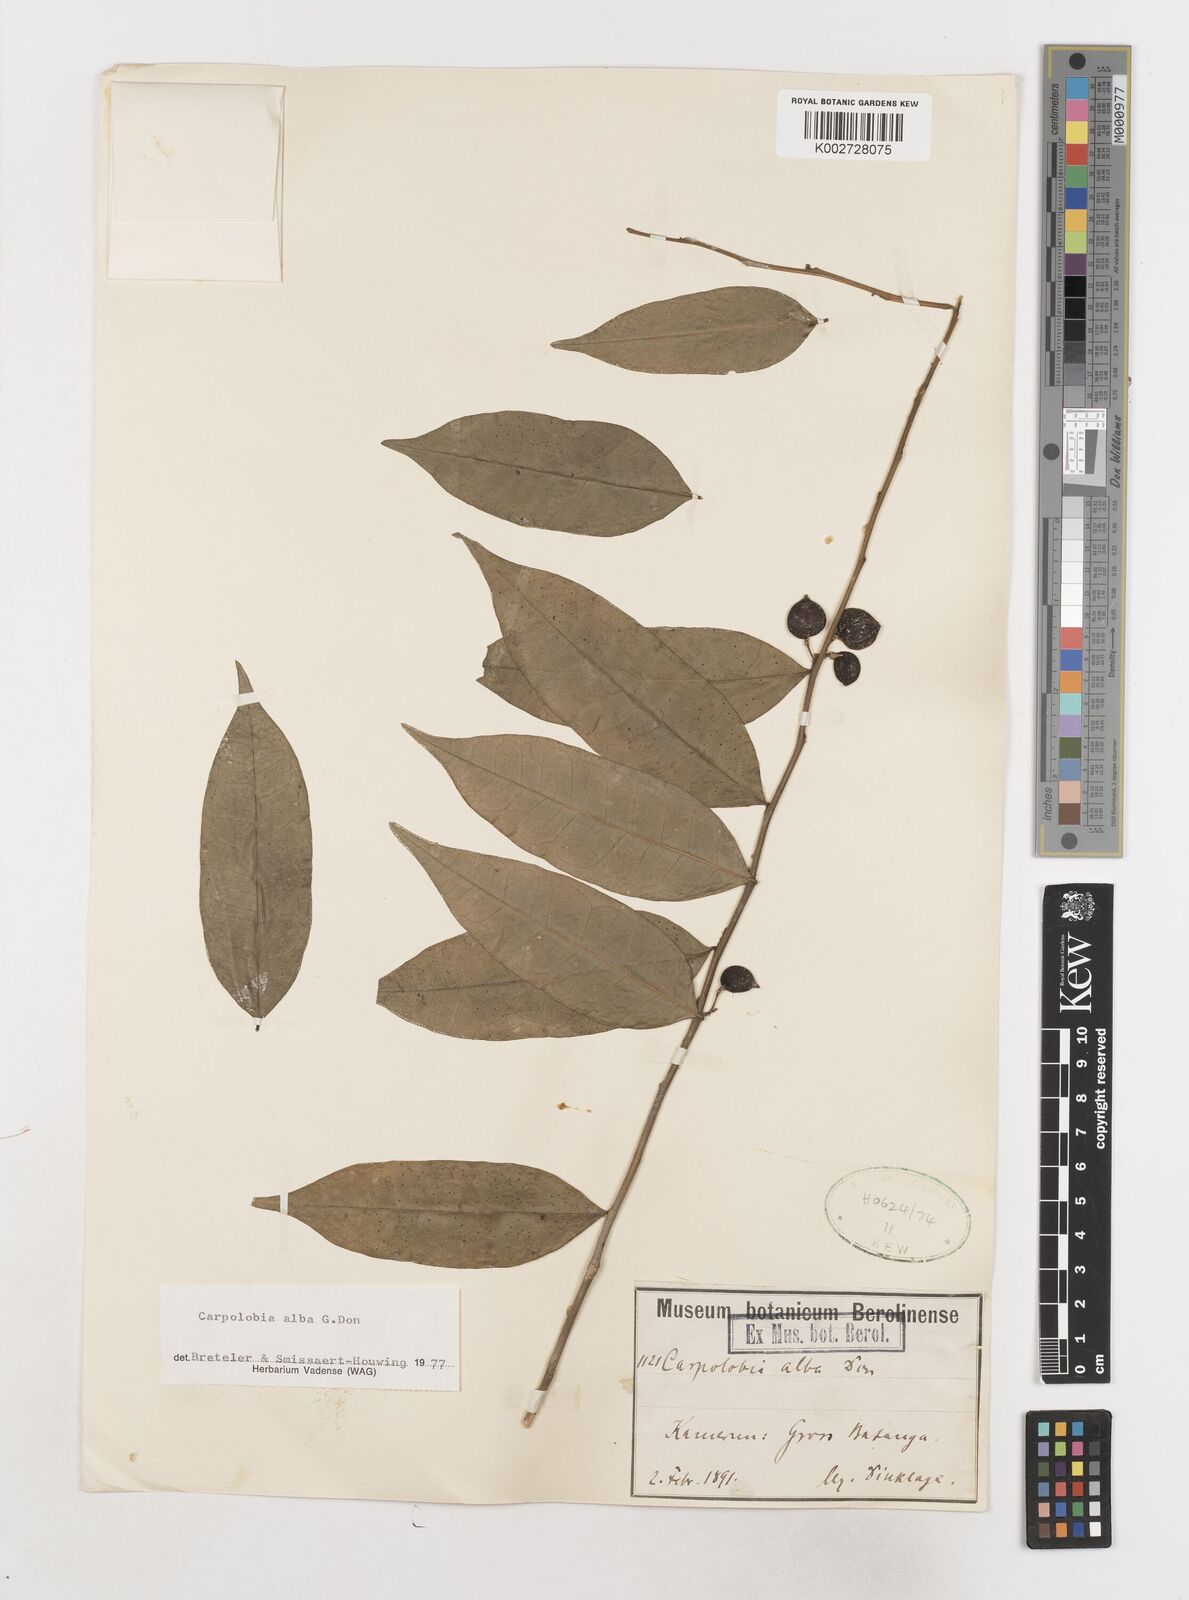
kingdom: Plantae
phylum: Tracheophyta
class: Magnoliopsida
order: Fabales
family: Polygalaceae
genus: Carpolobia
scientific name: Carpolobia alba
